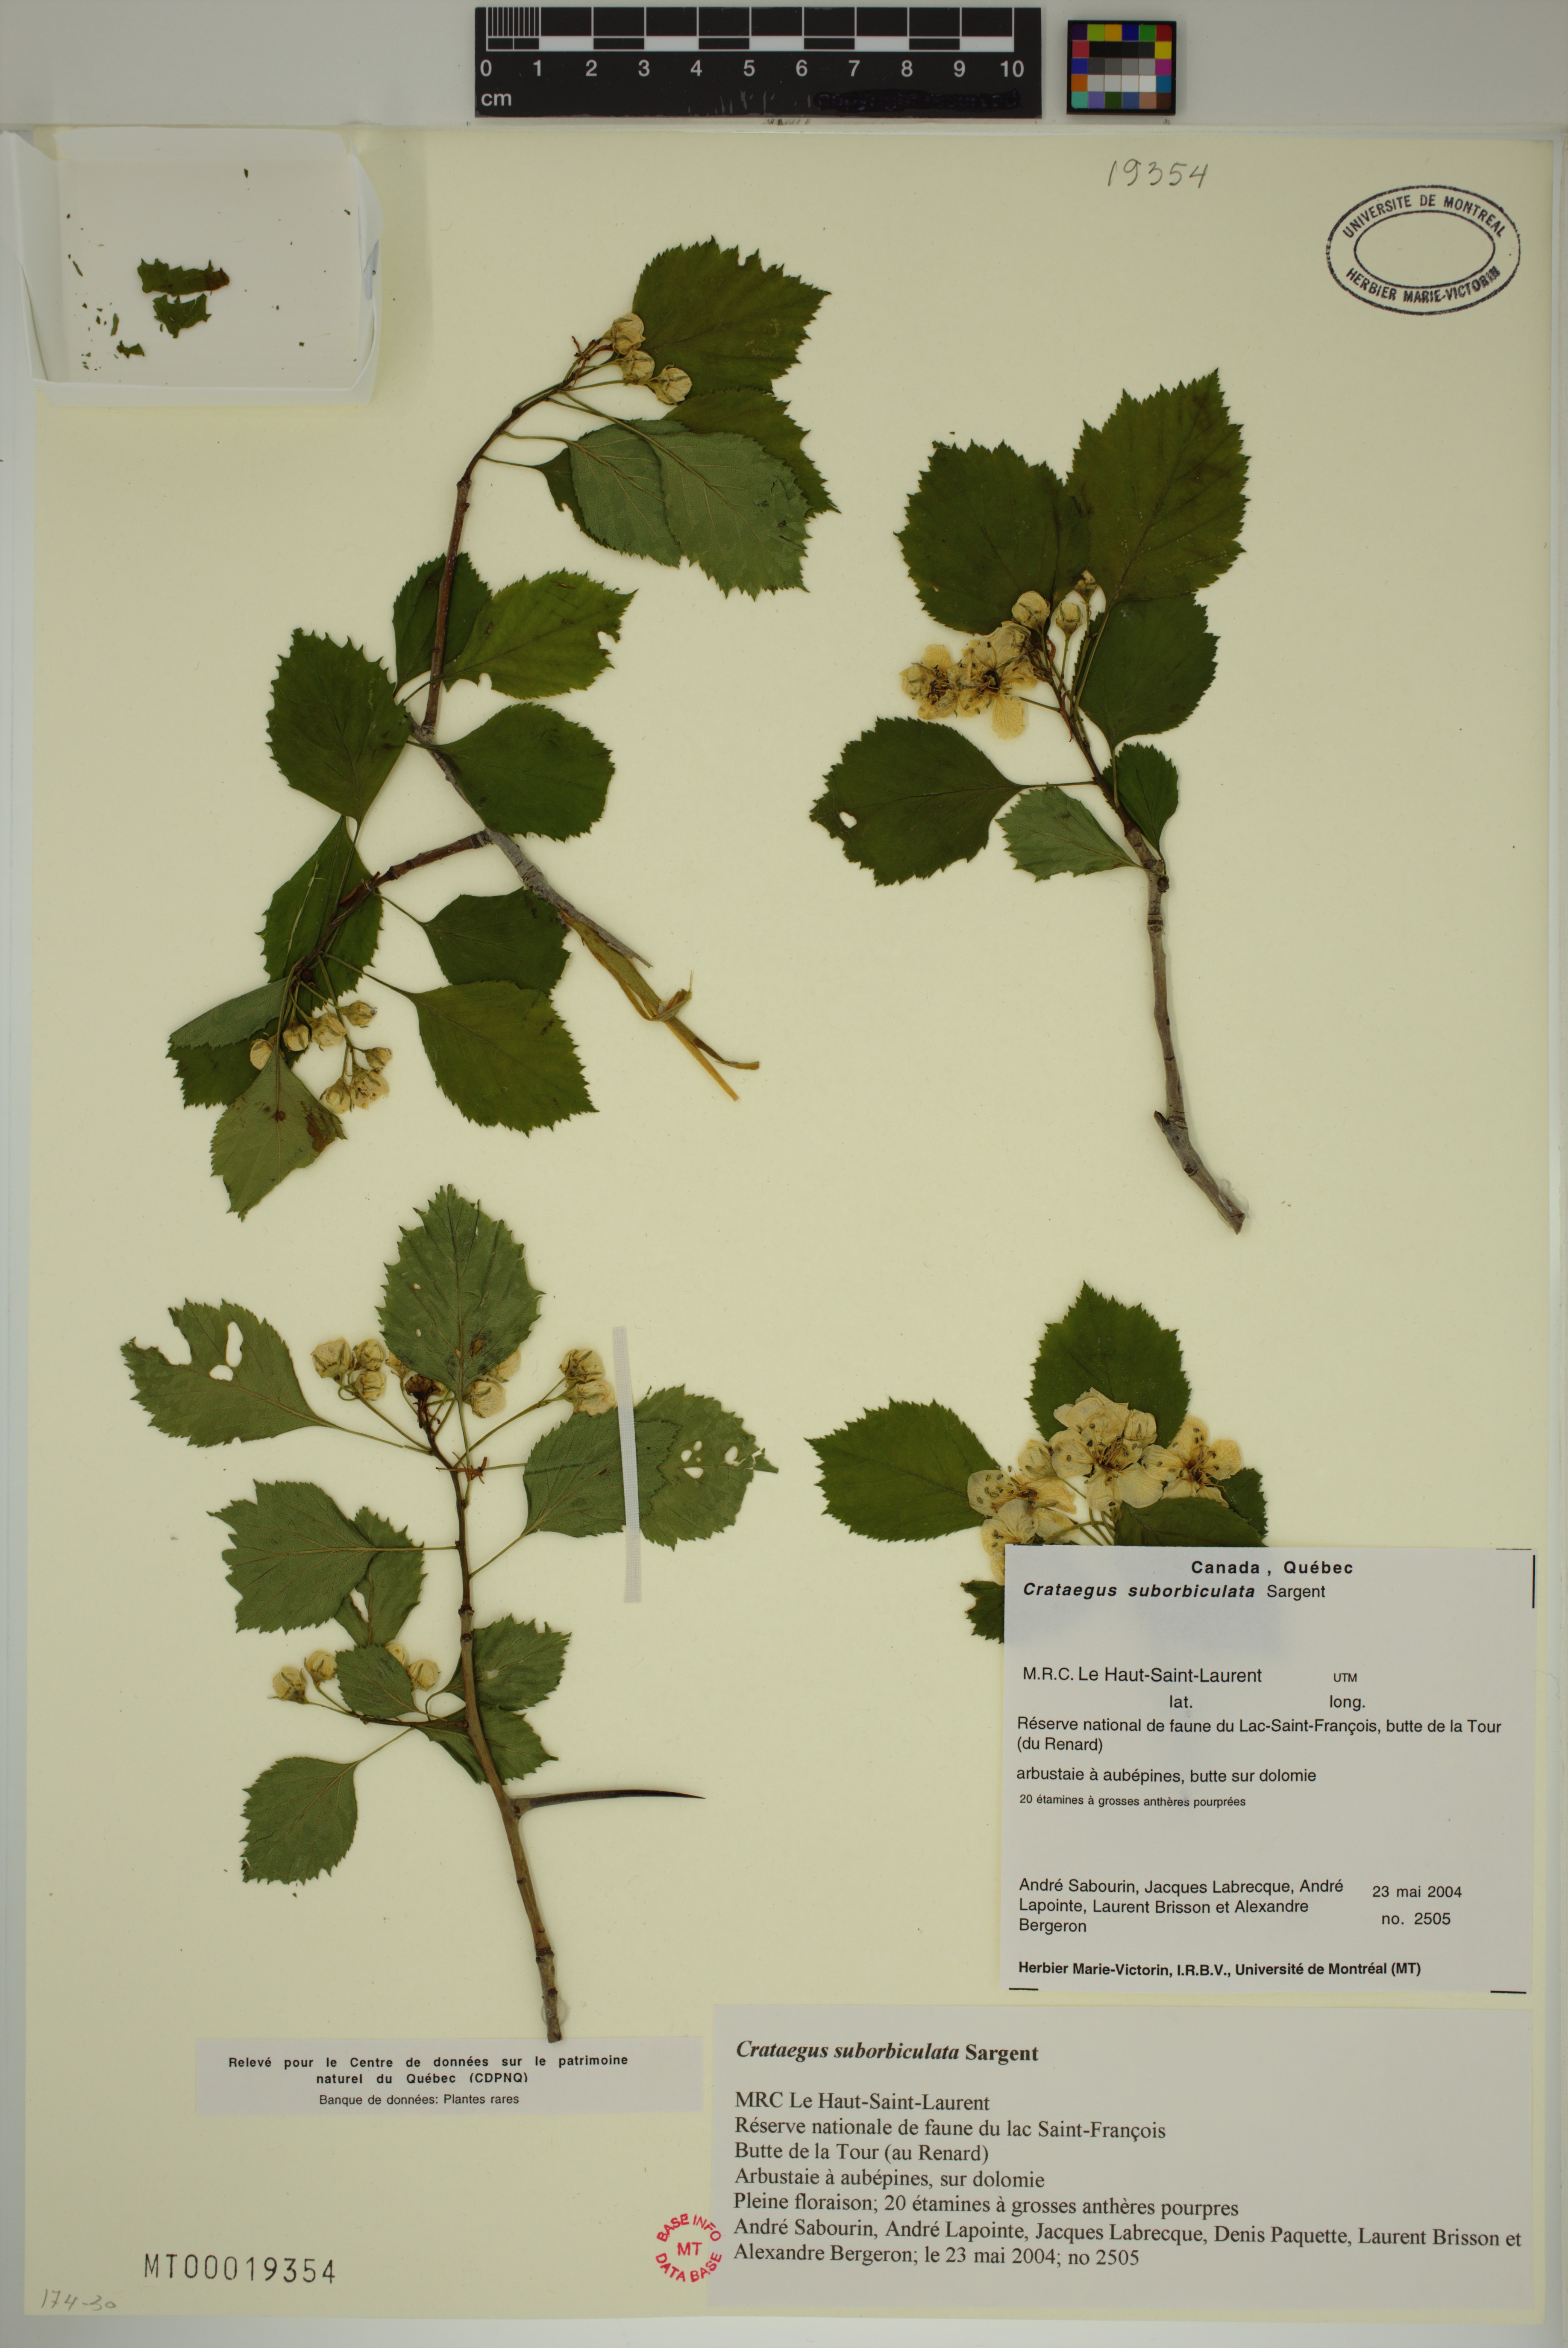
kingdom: Plantae
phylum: Tracheophyta
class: Magnoliopsida
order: Rosales
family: Rosaceae
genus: Crataegus
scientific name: Crataegus suborbiculata
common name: Caughnawaga hawthorn
